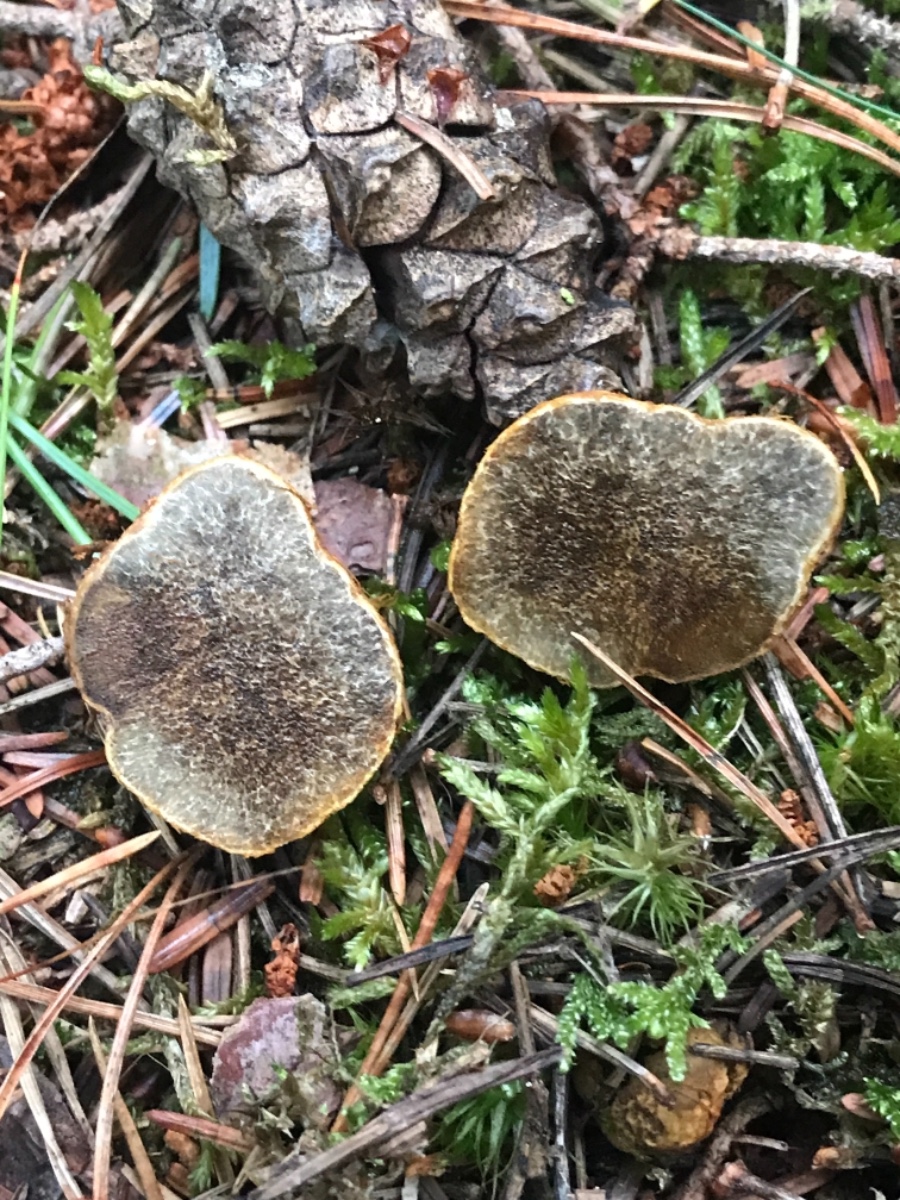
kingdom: Fungi
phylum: Basidiomycota
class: Agaricomycetes
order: Boletales
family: Rhizopogonaceae
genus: Rhizopogon
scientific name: Rhizopogon obtextus
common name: gul skægtrøffel
